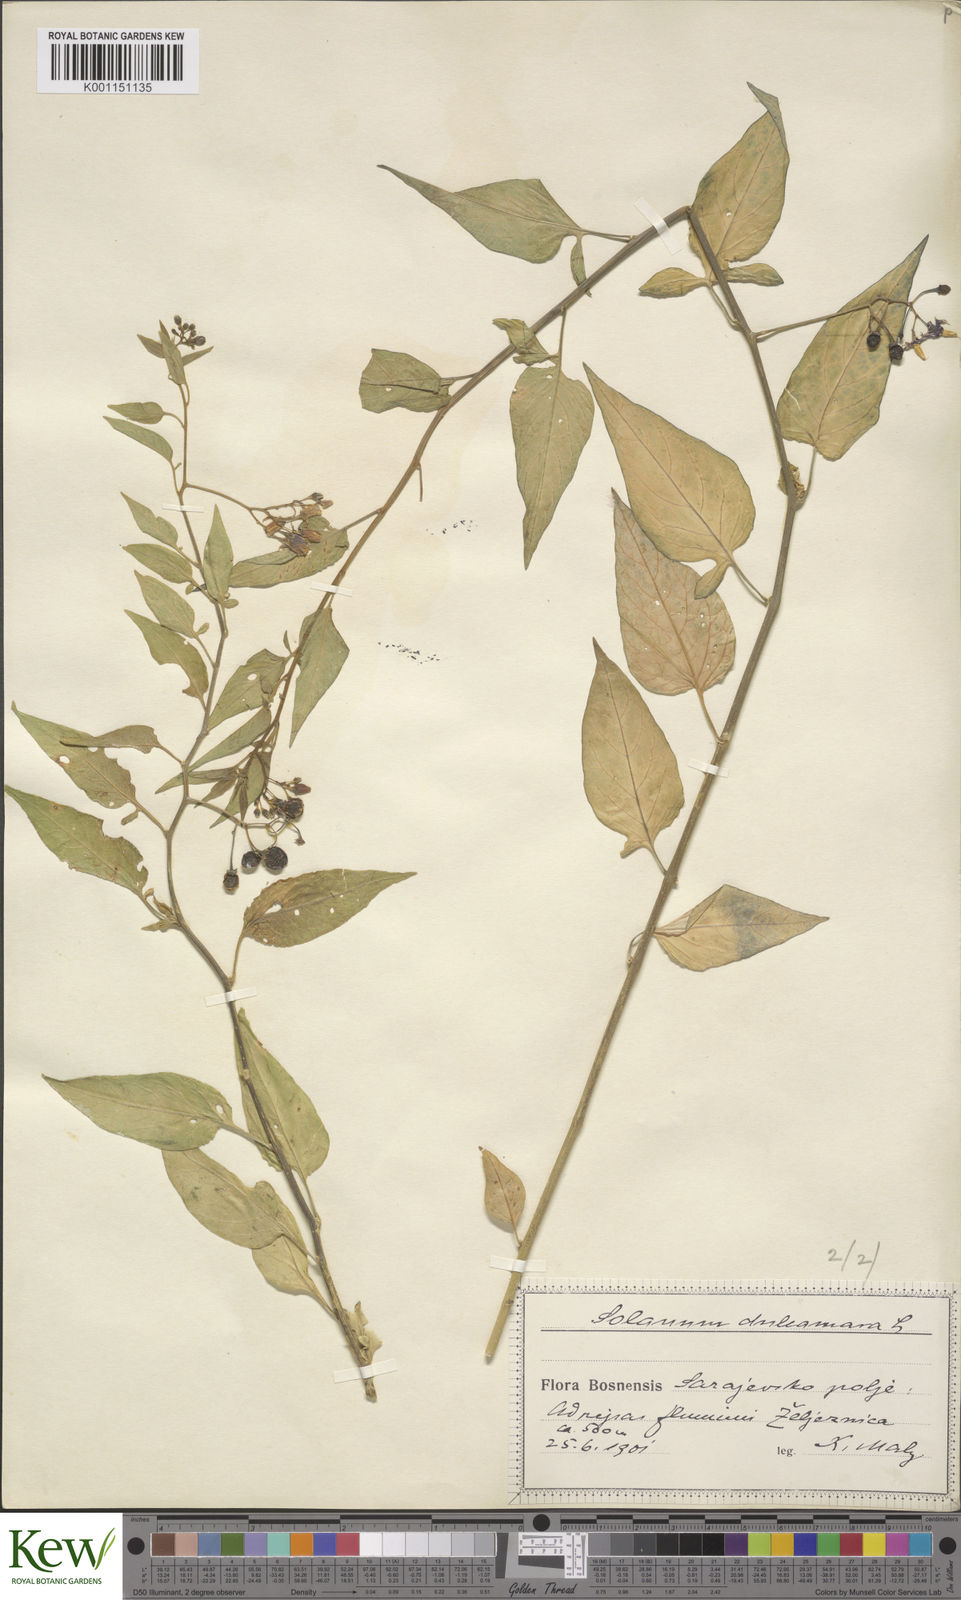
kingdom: Plantae
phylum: Tracheophyta
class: Magnoliopsida
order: Solanales
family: Solanaceae
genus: Solanum
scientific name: Solanum dulcamara
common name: Climbing nightshade
